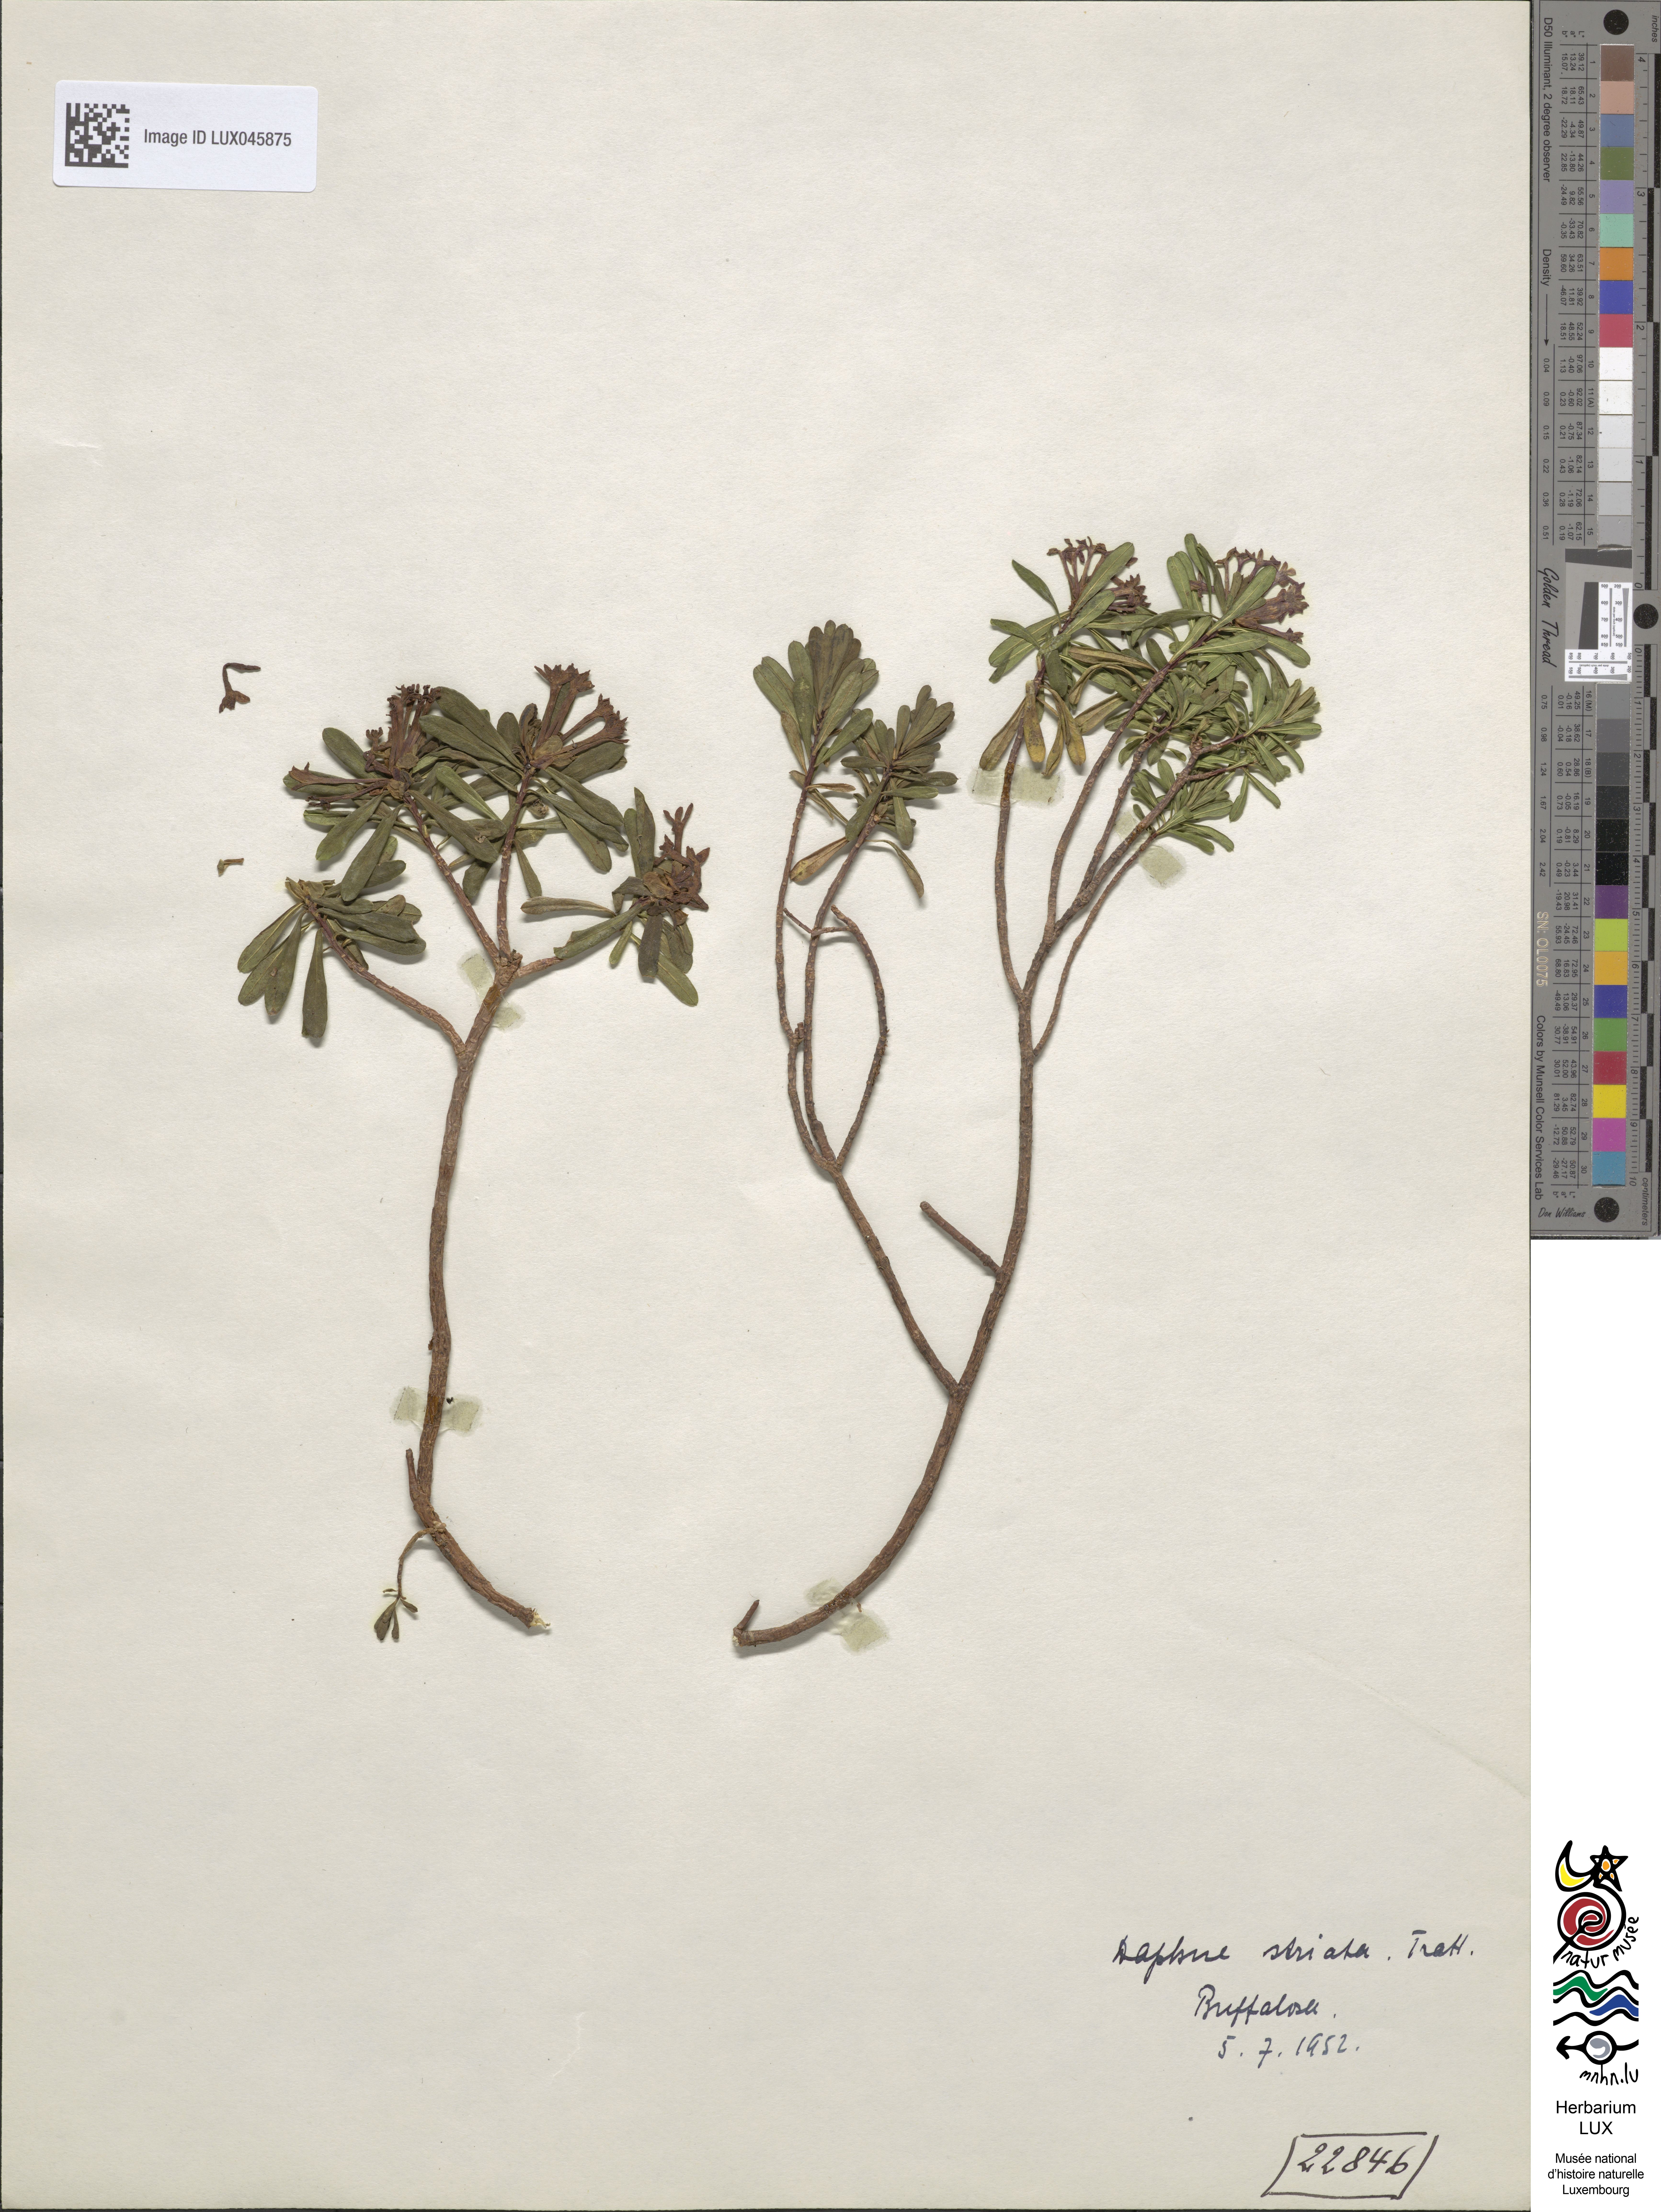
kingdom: Plantae
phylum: Tracheophyta
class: Magnoliopsida
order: Malvales
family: Thymelaeaceae
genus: Daphne
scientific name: Daphne striata
